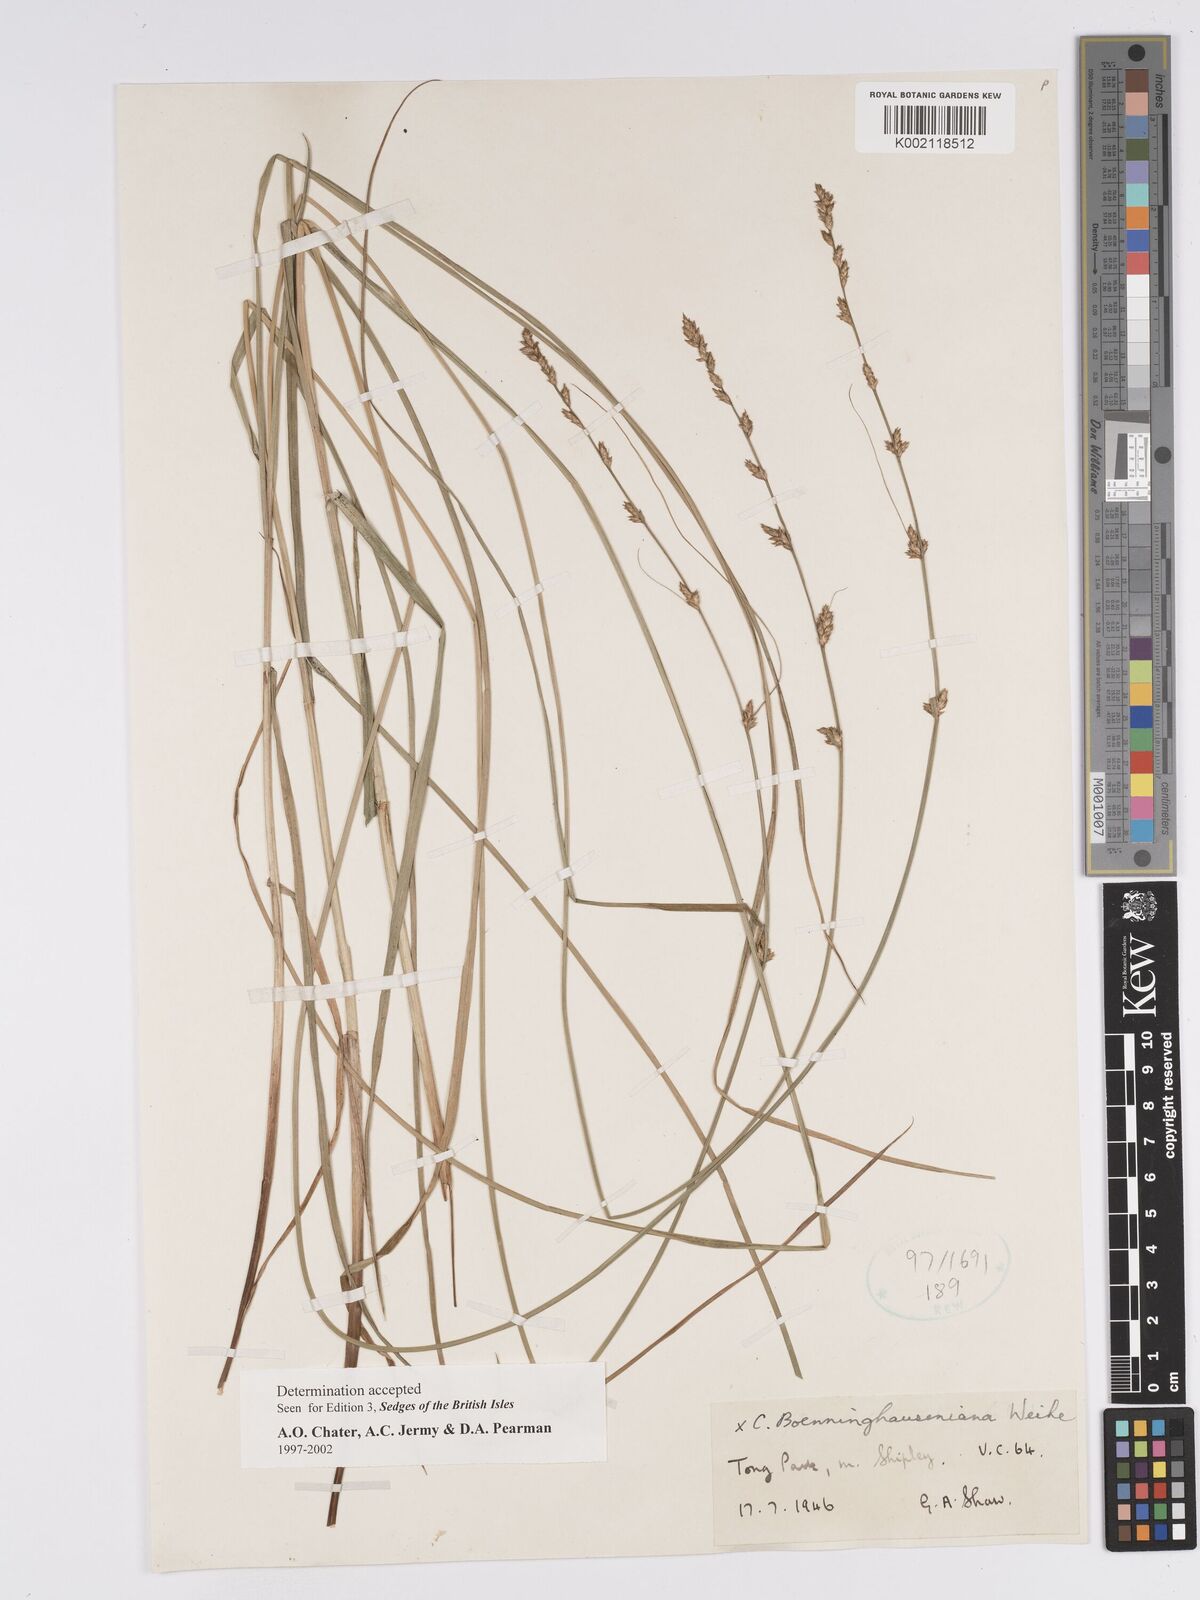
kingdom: Plantae
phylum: Tracheophyta
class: Liliopsida
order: Poales
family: Cyperaceae
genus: Carex
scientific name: Carex boenninghausiana
